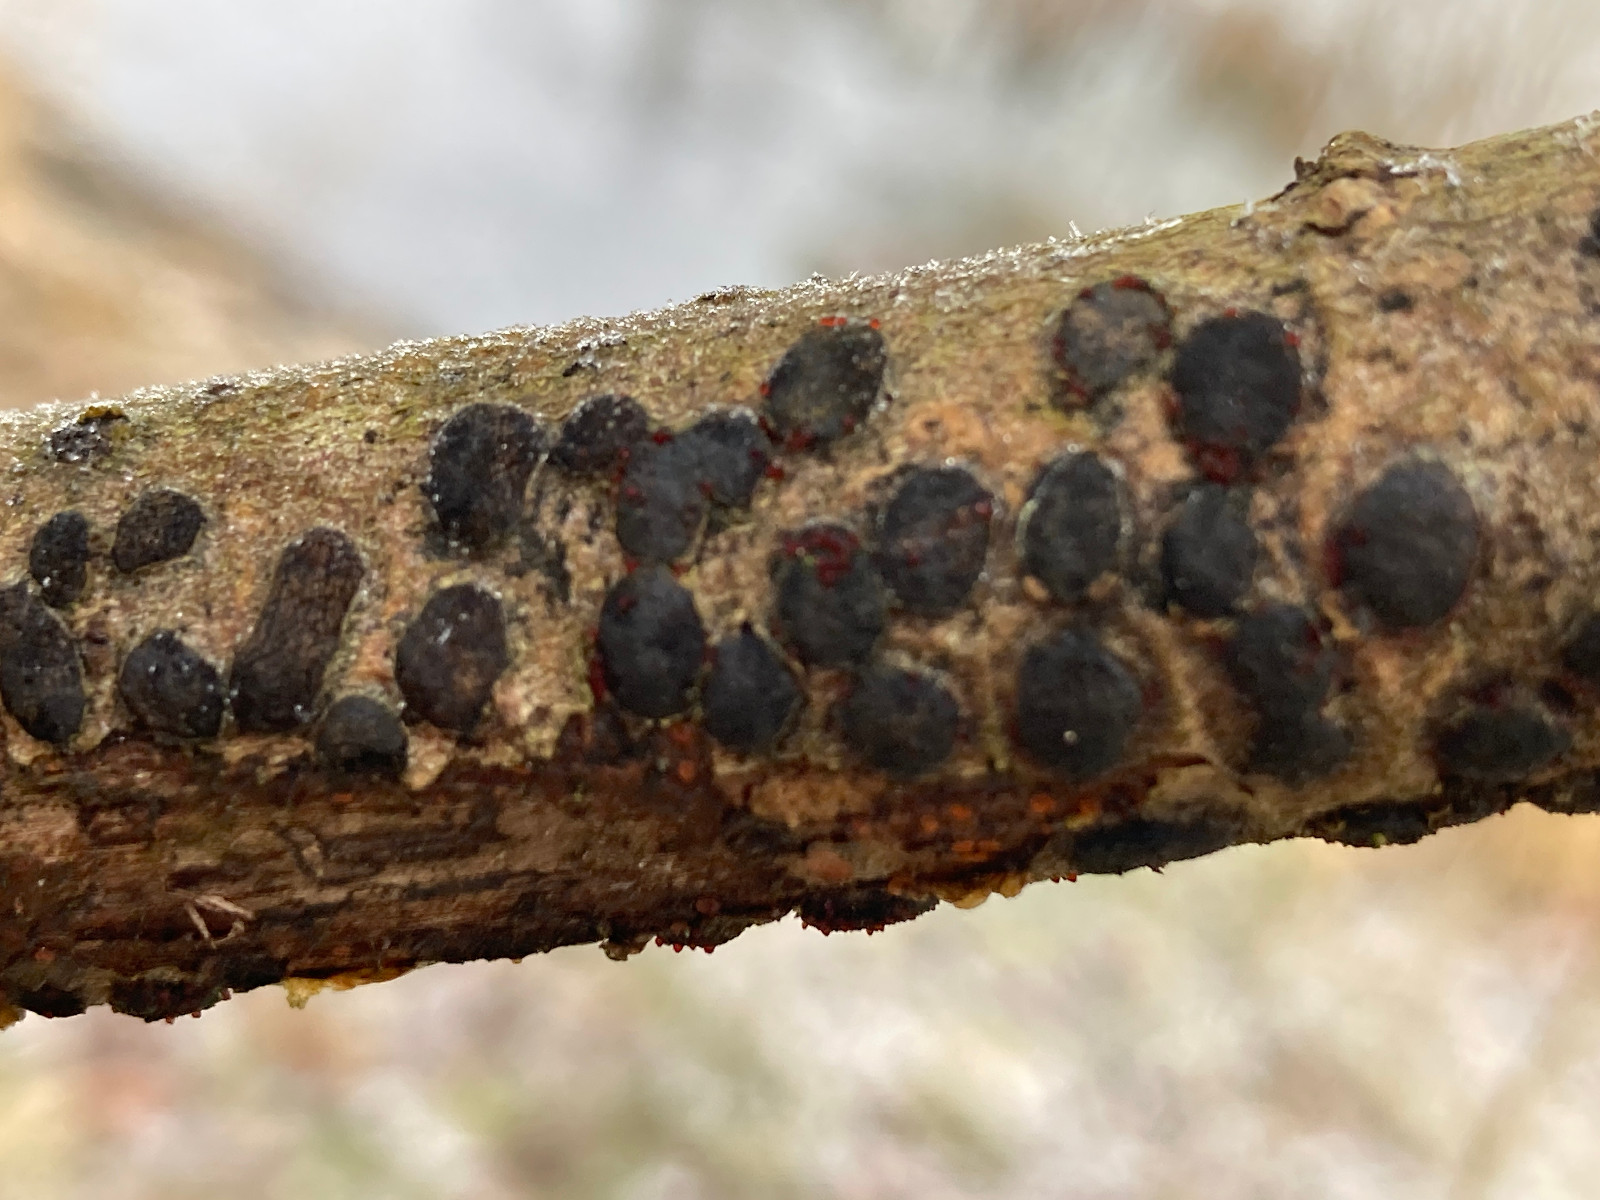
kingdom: Fungi
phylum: Ascomycota
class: Sordariomycetes
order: Hypocreales
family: Nectriaceae
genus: Dialonectria
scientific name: Dialonectria diatrypicola
